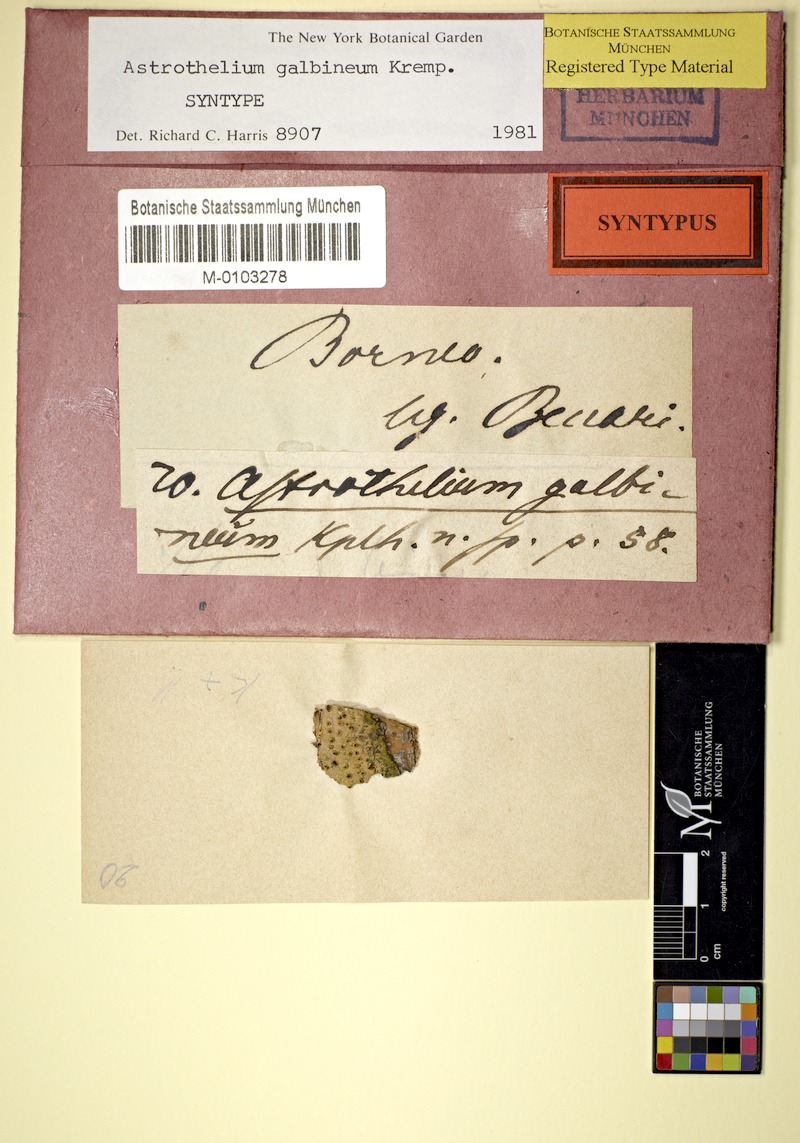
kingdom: Fungi
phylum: Ascomycota
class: Dothideomycetes
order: Trypetheliales
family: Trypetheliaceae
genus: Astrothelium
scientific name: Astrothelium galbineum
